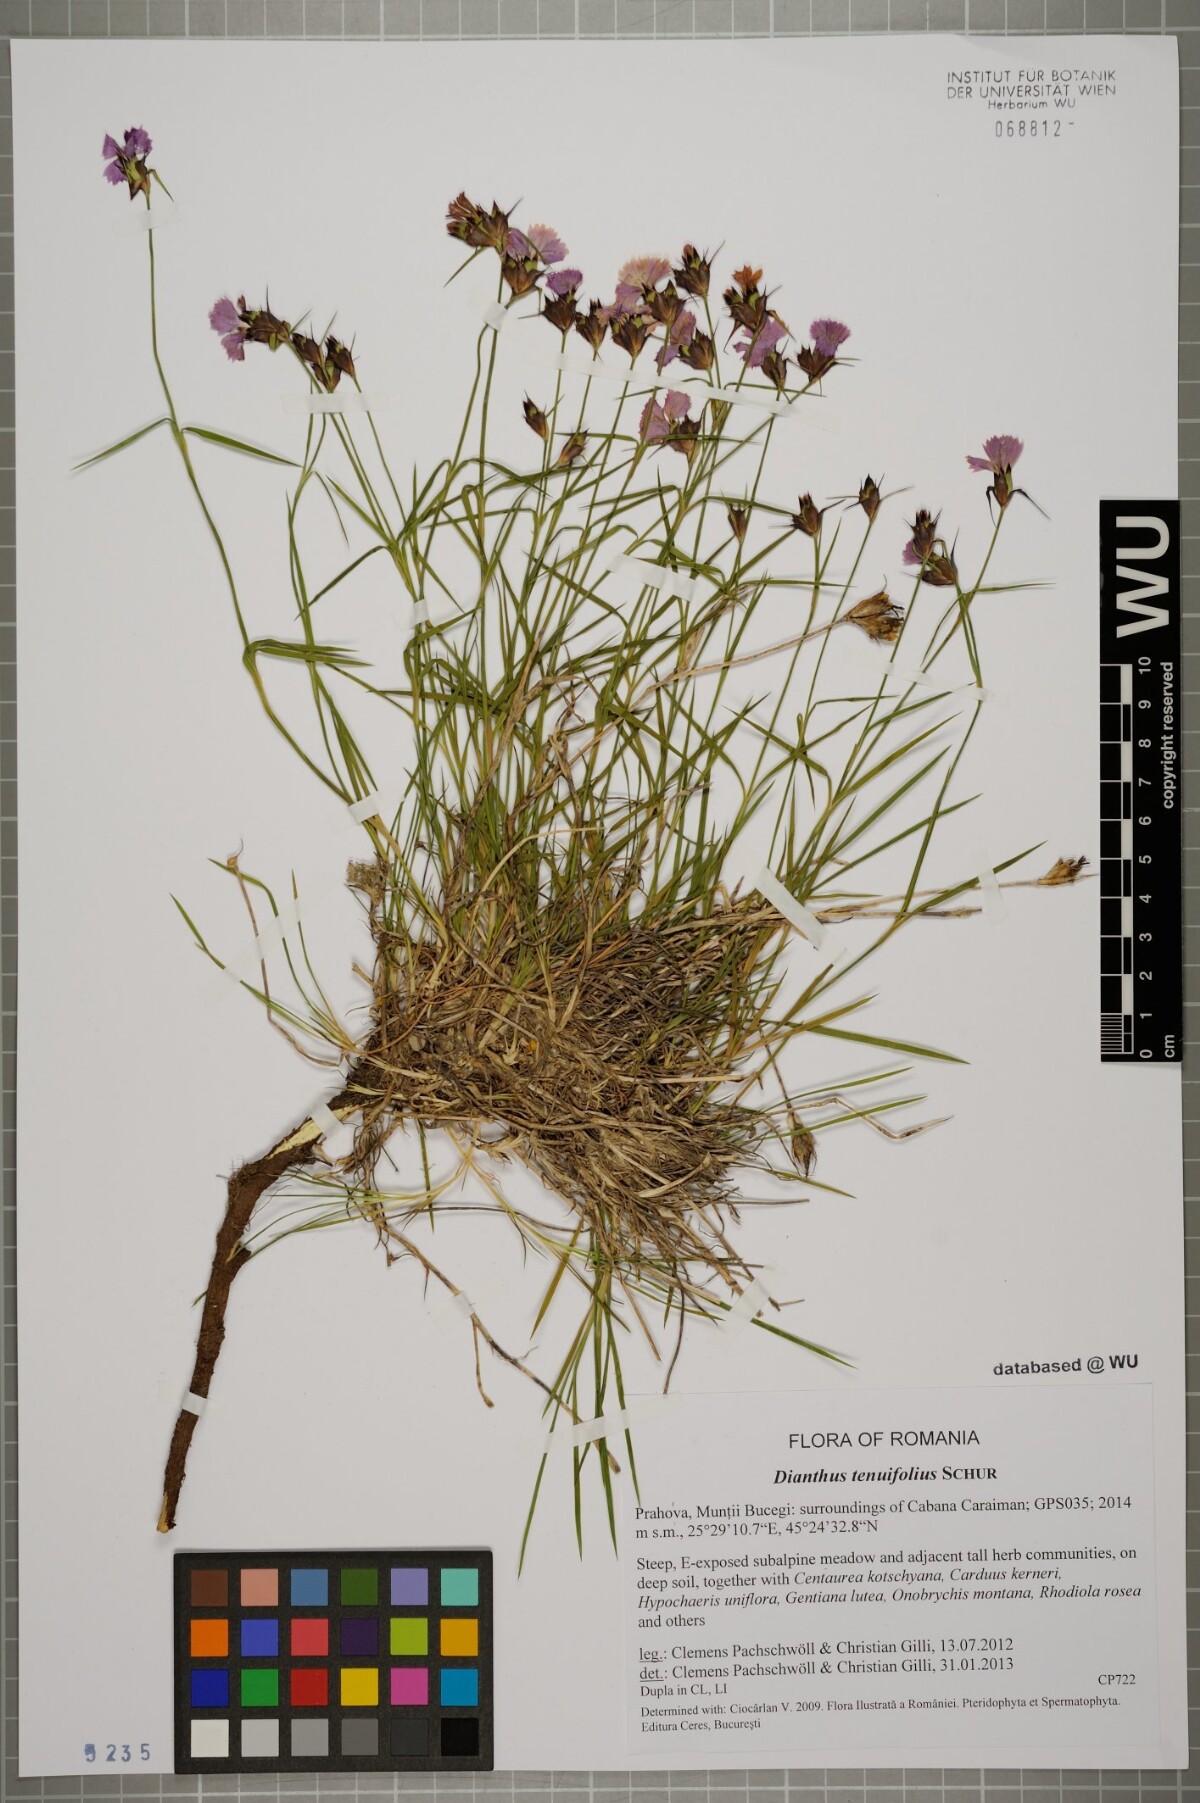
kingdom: Plantae
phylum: Tracheophyta
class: Magnoliopsida
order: Caryophyllales
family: Caryophyllaceae
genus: Dianthus
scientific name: Dianthus carthusianorum
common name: Carthusian pink
